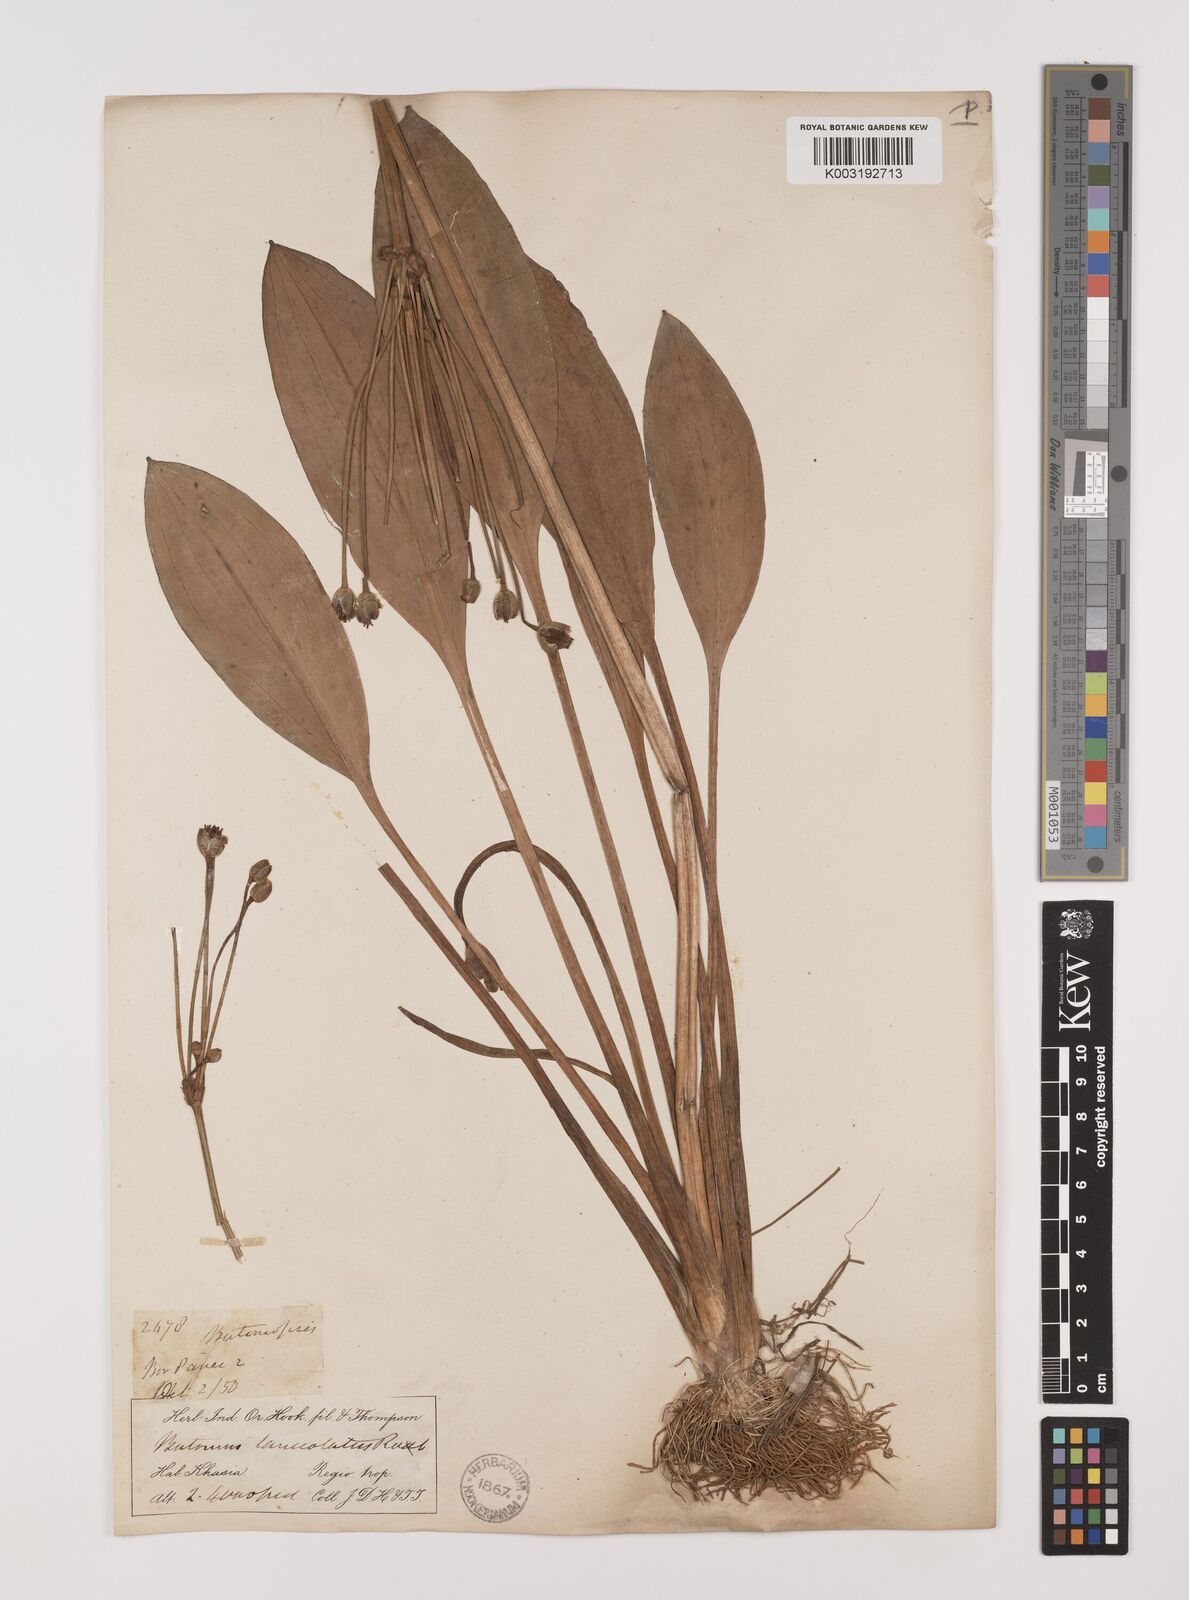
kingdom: Plantae
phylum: Tracheophyta
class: Liliopsida
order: Alismatales
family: Alismataceae
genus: Butomopsis
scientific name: Butomopsis latifolia
